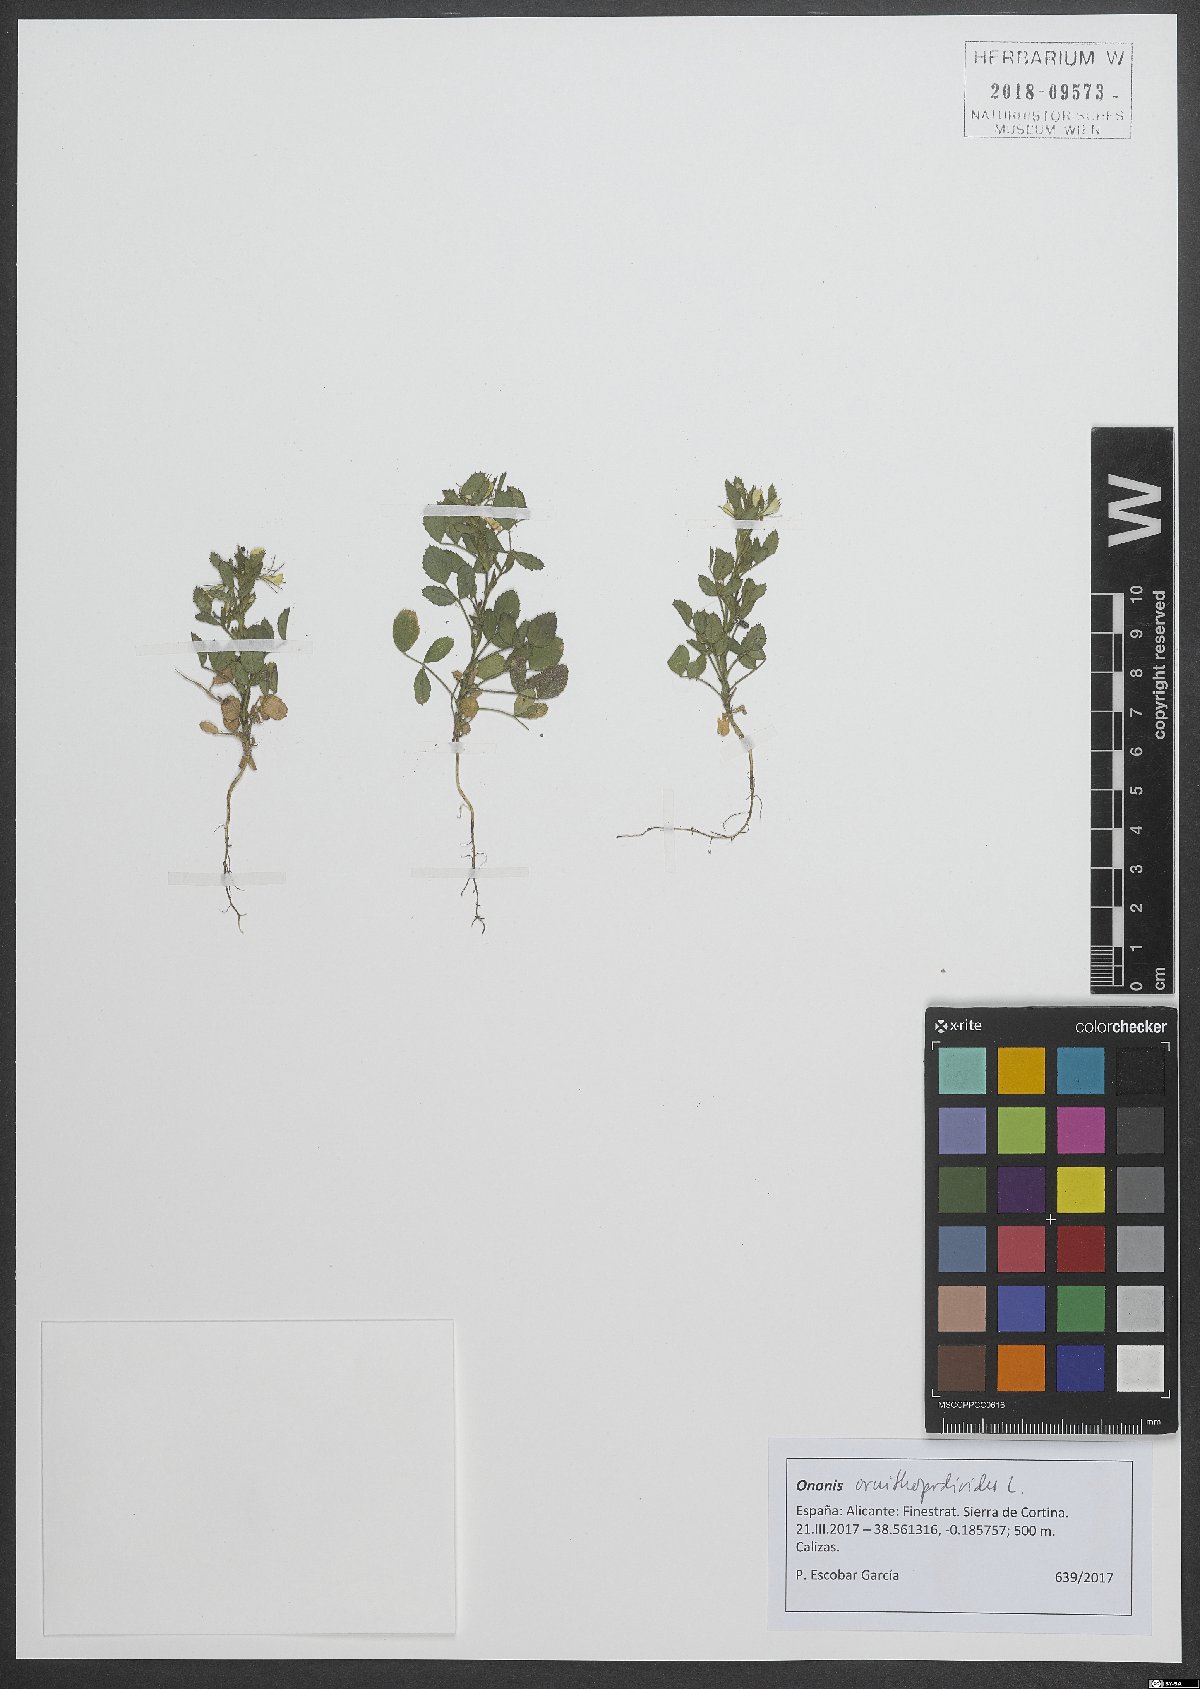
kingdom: Plantae
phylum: Tracheophyta
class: Magnoliopsida
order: Fabales
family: Fabaceae
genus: Ononis
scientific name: Ononis ornithopodioides
